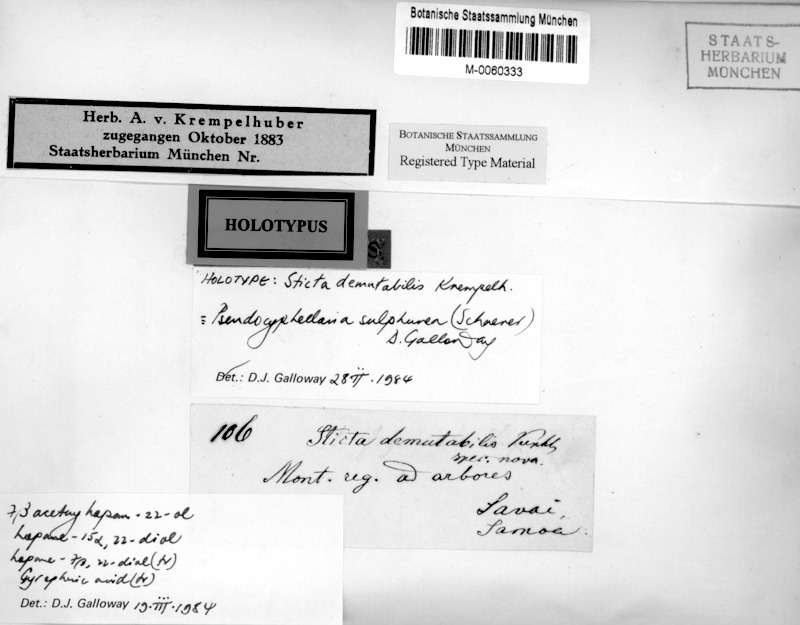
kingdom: Fungi
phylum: Ascomycota
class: Lecanoromycetes
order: Peltigerales
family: Lobariaceae
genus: Pseudocyphellaria
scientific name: Pseudocyphellaria sulphurea
